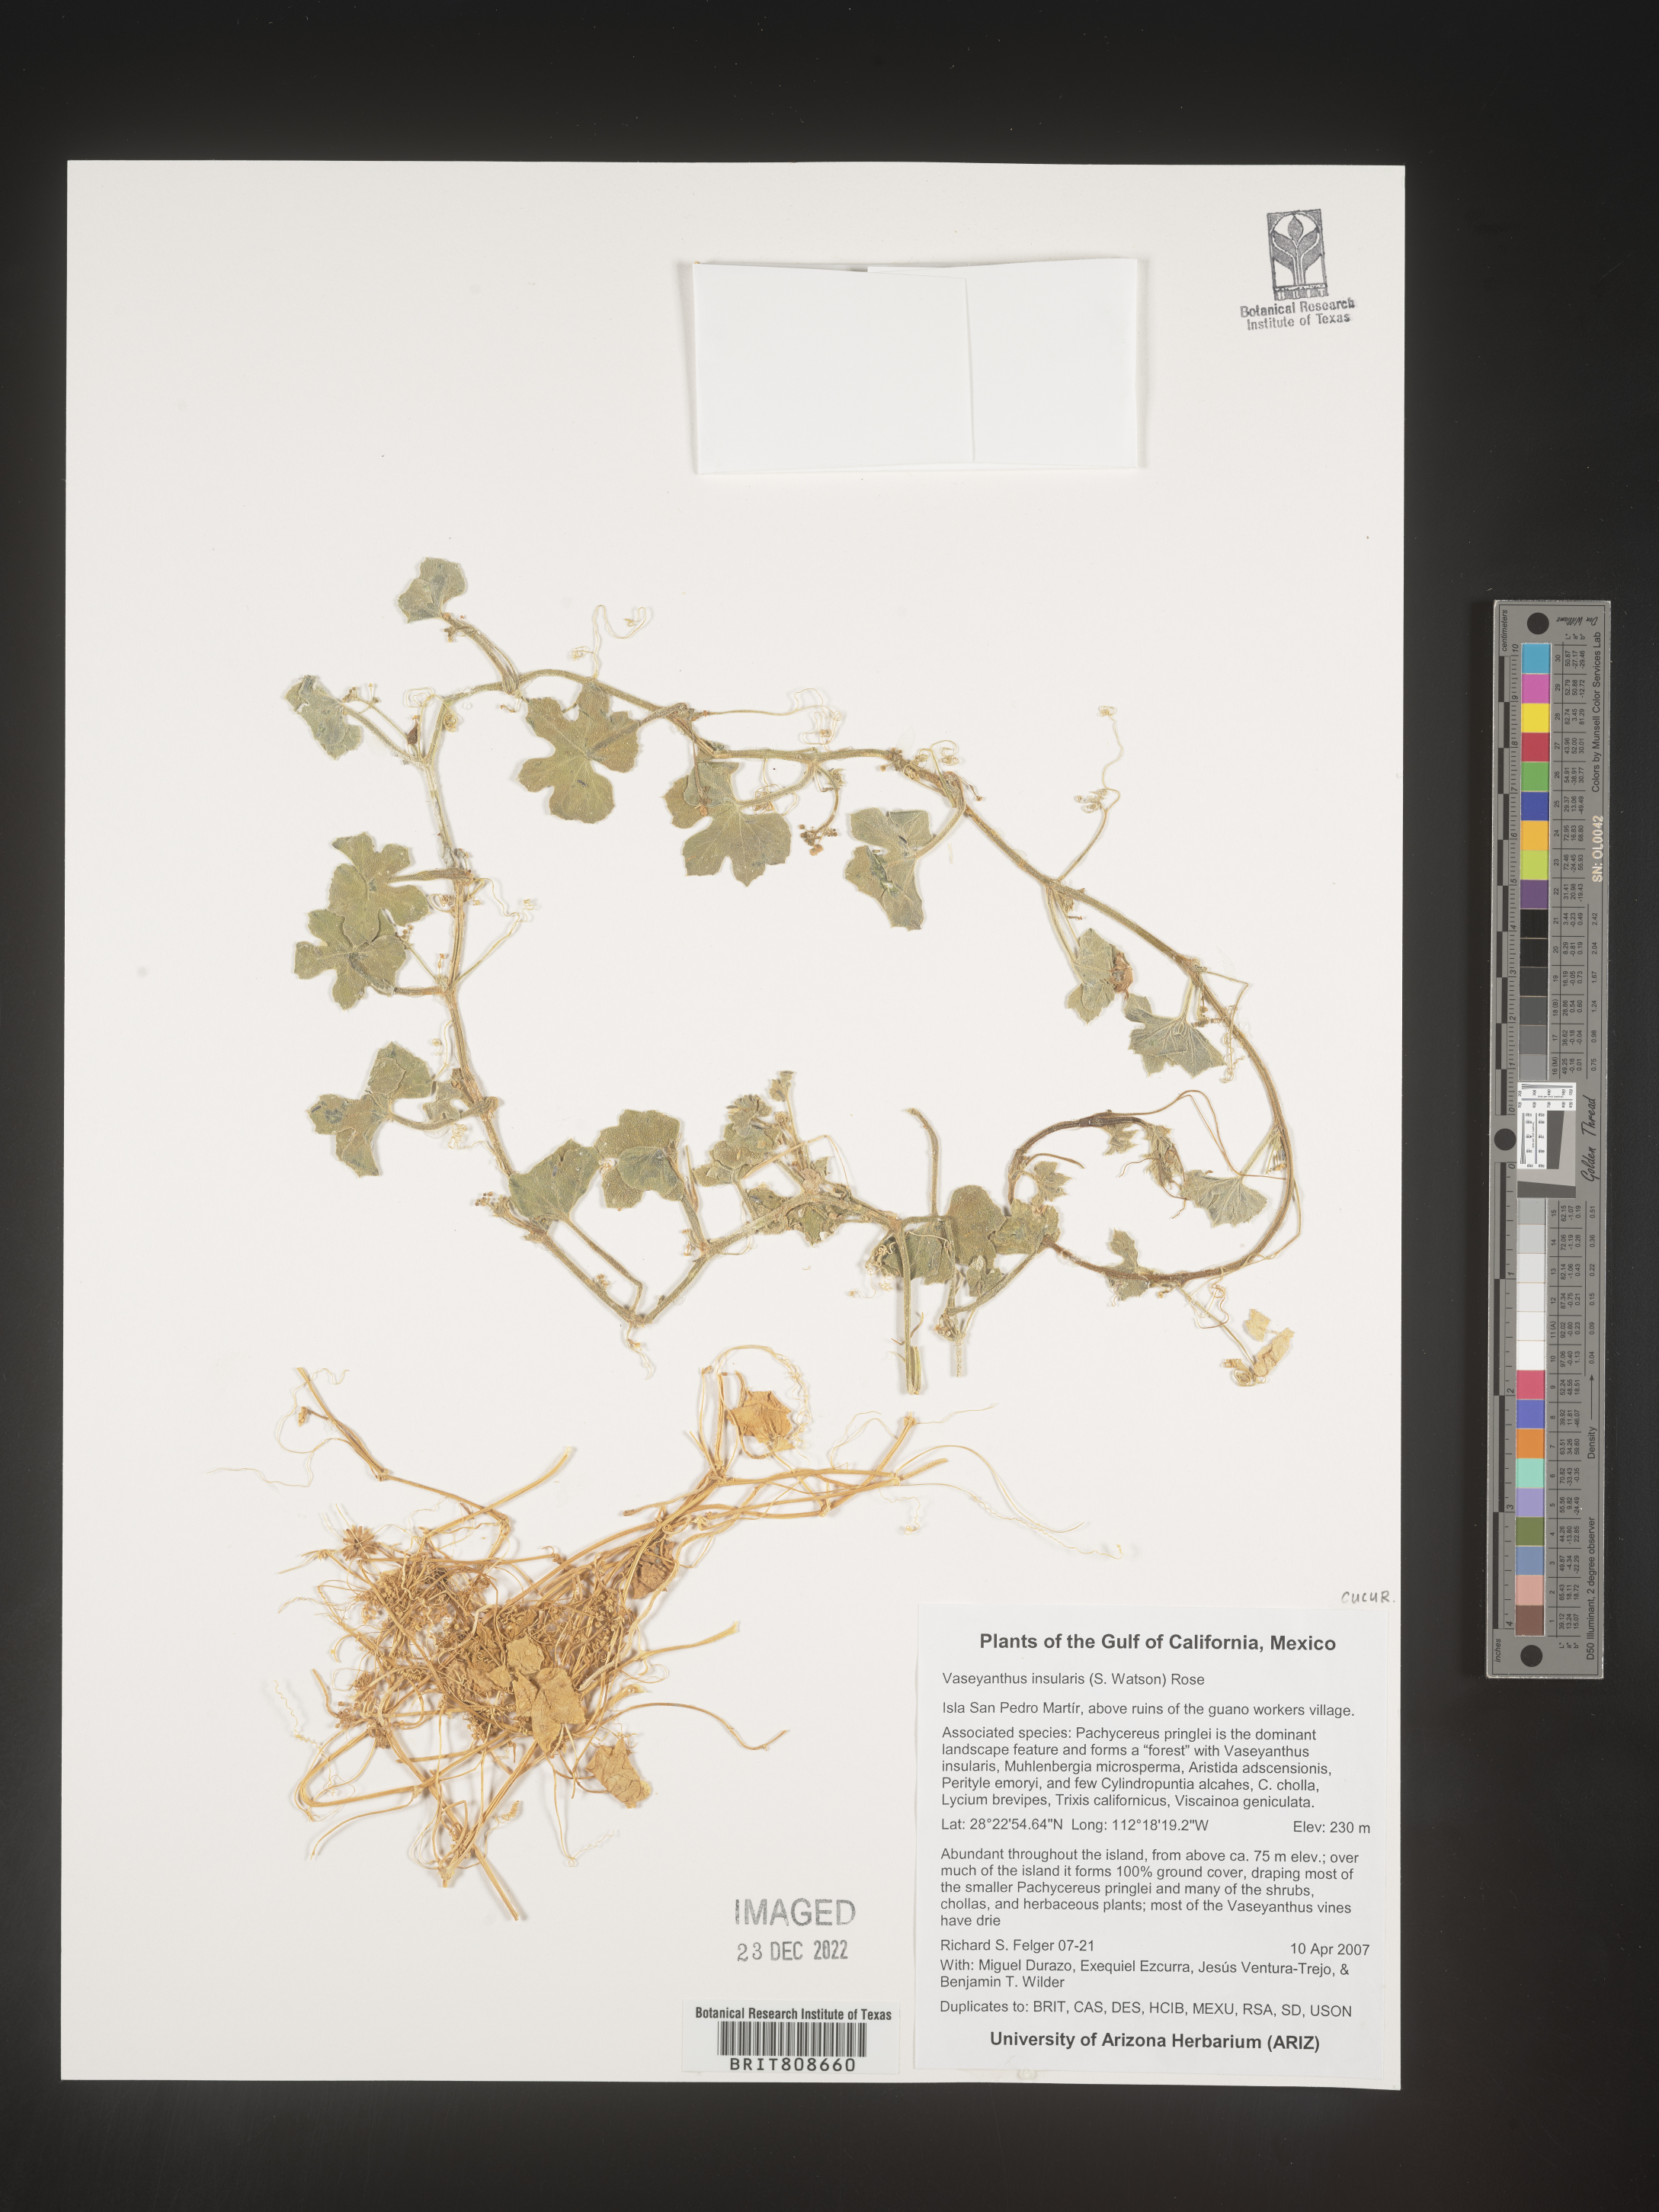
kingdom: Plantae
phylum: Tracheophyta
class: Magnoliopsida
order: Cucurbitales
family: Cucurbitaceae
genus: Echinopepon
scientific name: Echinopepon
